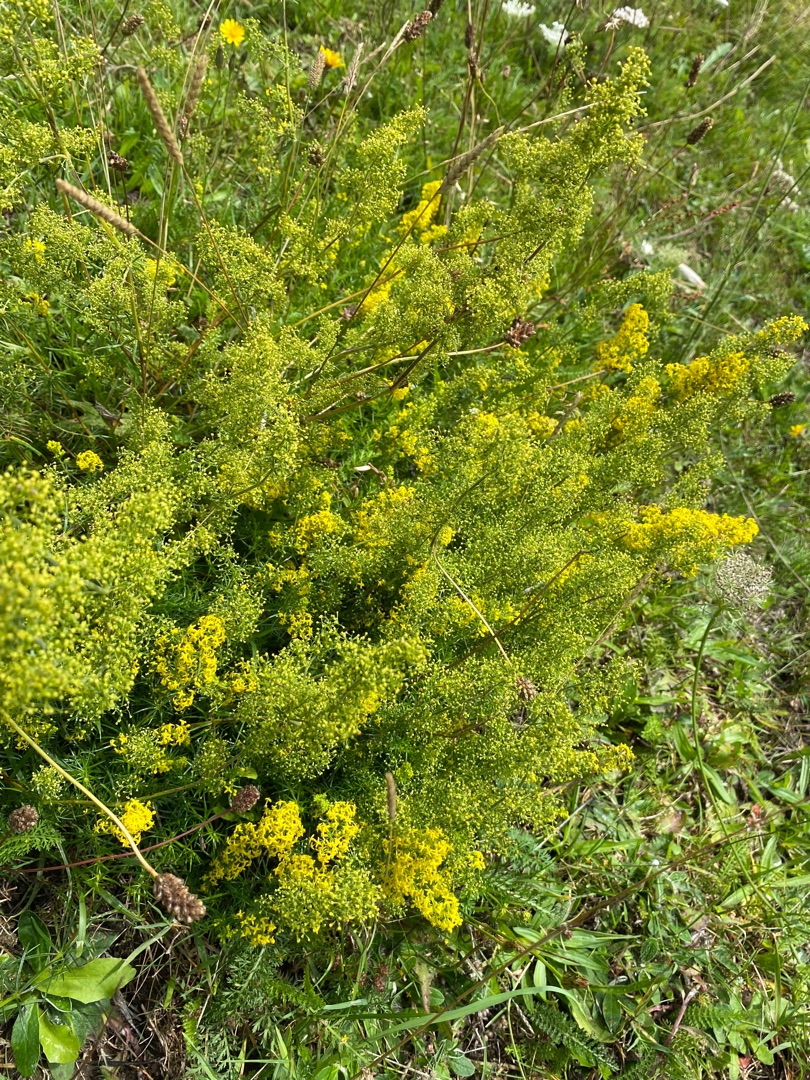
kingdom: Plantae
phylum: Tracheophyta
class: Magnoliopsida
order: Gentianales
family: Rubiaceae
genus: Galium
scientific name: Galium verum
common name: Gul snerre
